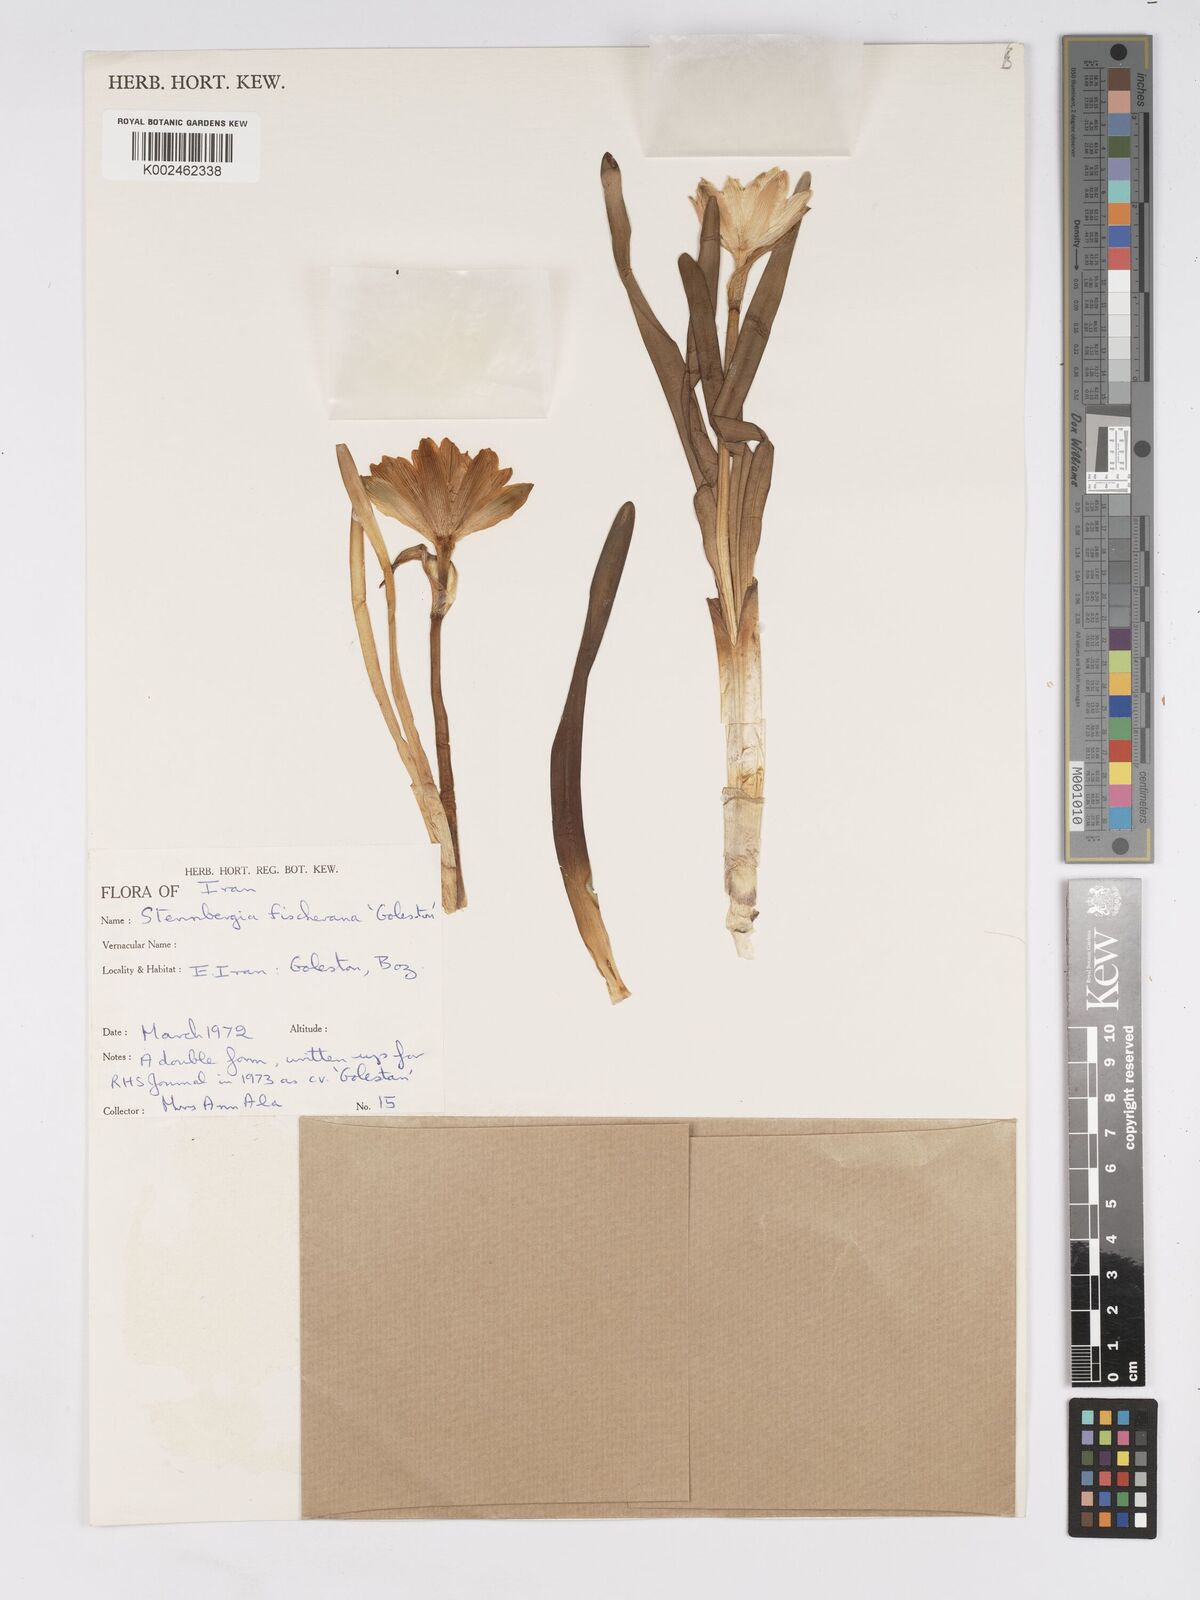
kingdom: Plantae
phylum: Tracheophyta
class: Liliopsida
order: Asparagales
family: Amaryllidaceae
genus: Sternbergia
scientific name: Sternbergia vernalis
